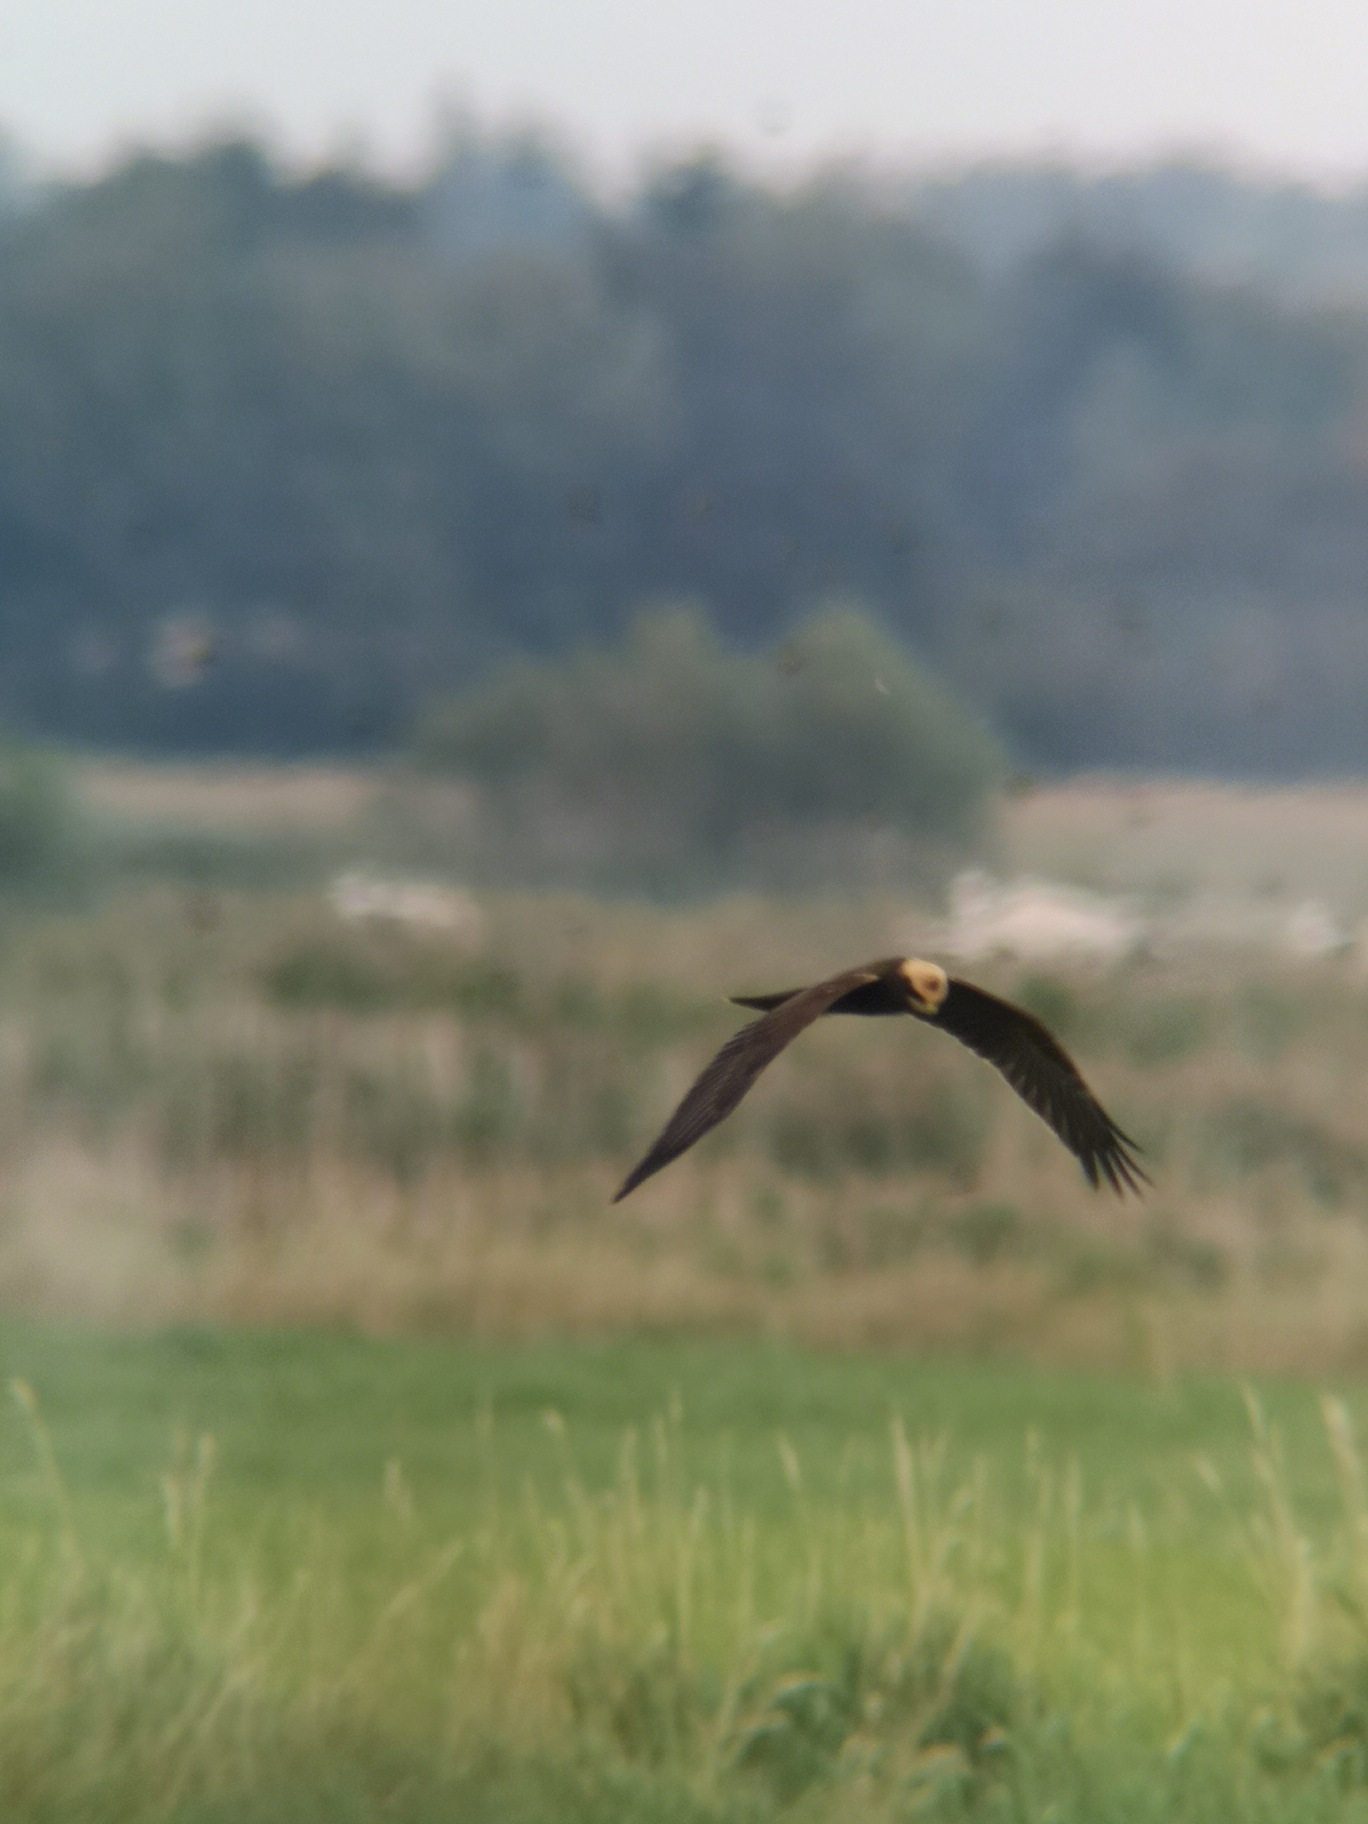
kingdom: Animalia
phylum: Chordata
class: Aves
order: Accipitriformes
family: Accipitridae
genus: Circus
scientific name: Circus aeruginosus
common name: Rørhøg
